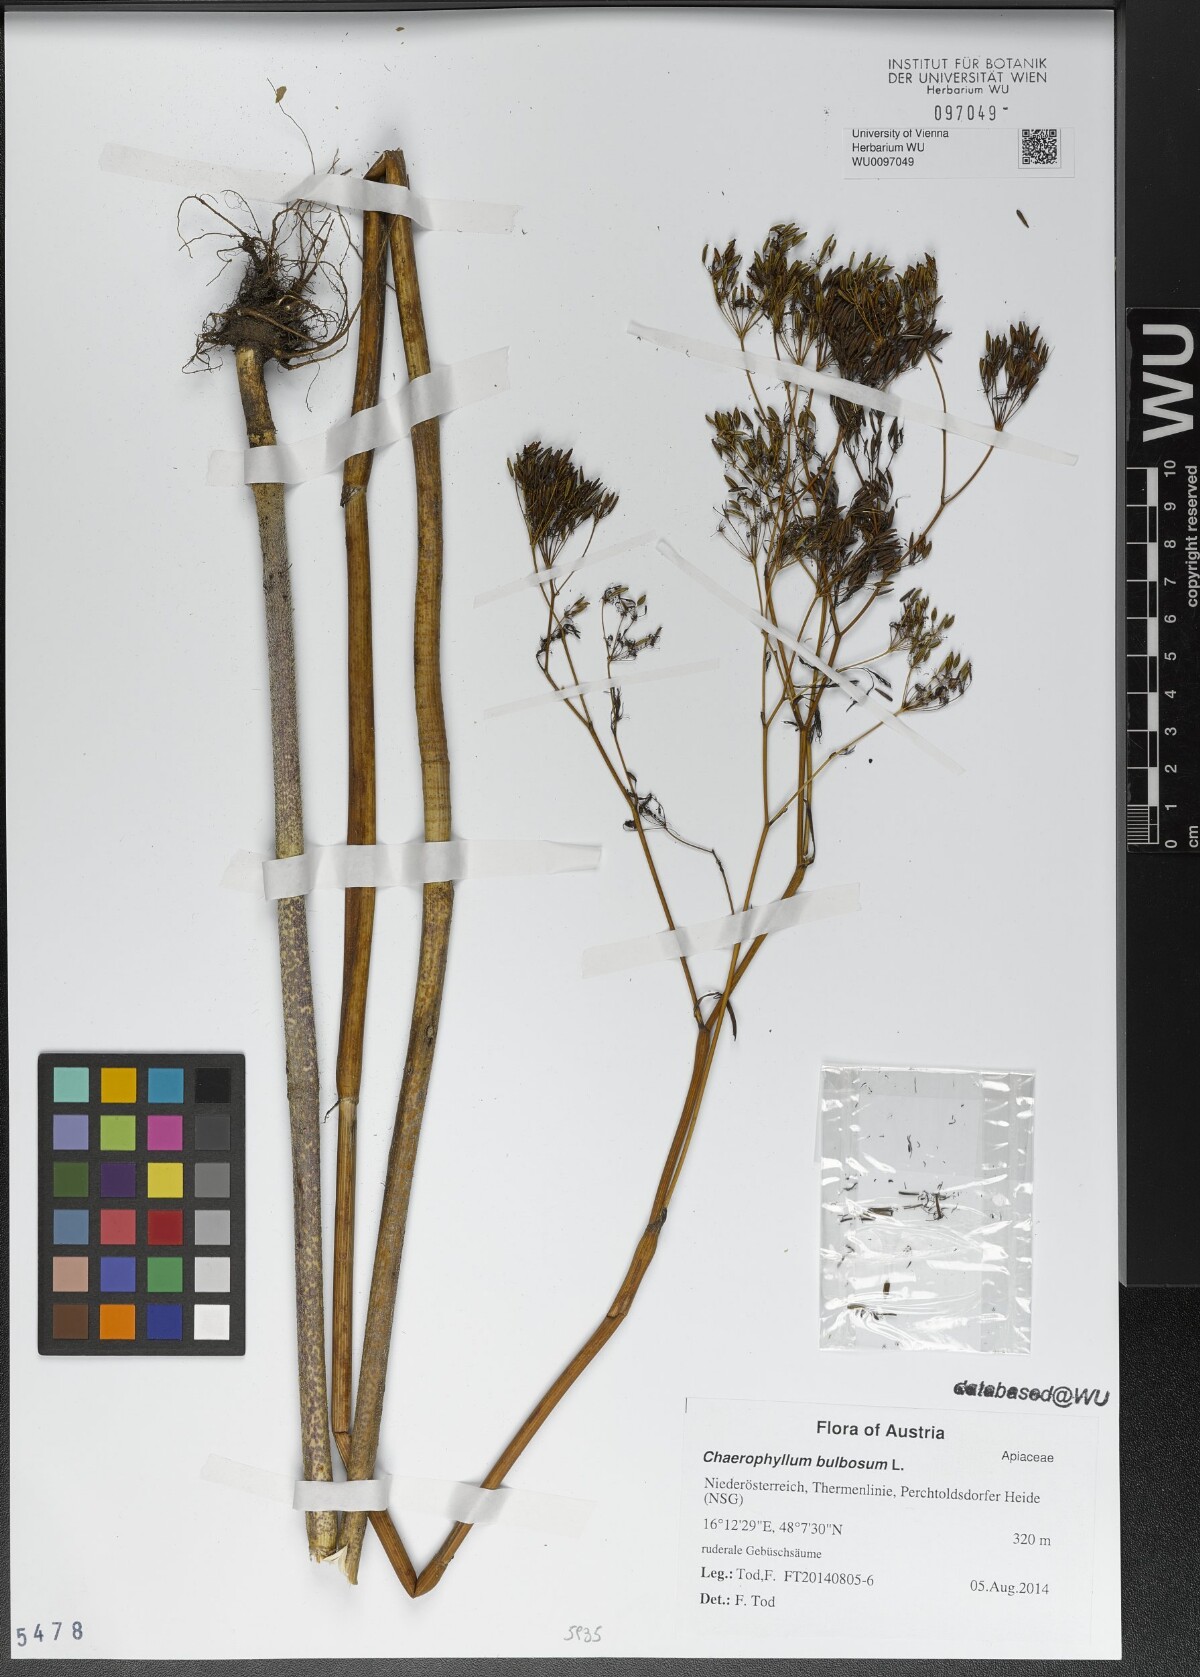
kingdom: Plantae
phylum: Tracheophyta
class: Magnoliopsida
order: Apiales
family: Apiaceae
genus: Chaerophyllum
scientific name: Chaerophyllum bulbosum
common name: Bulbous chervil
